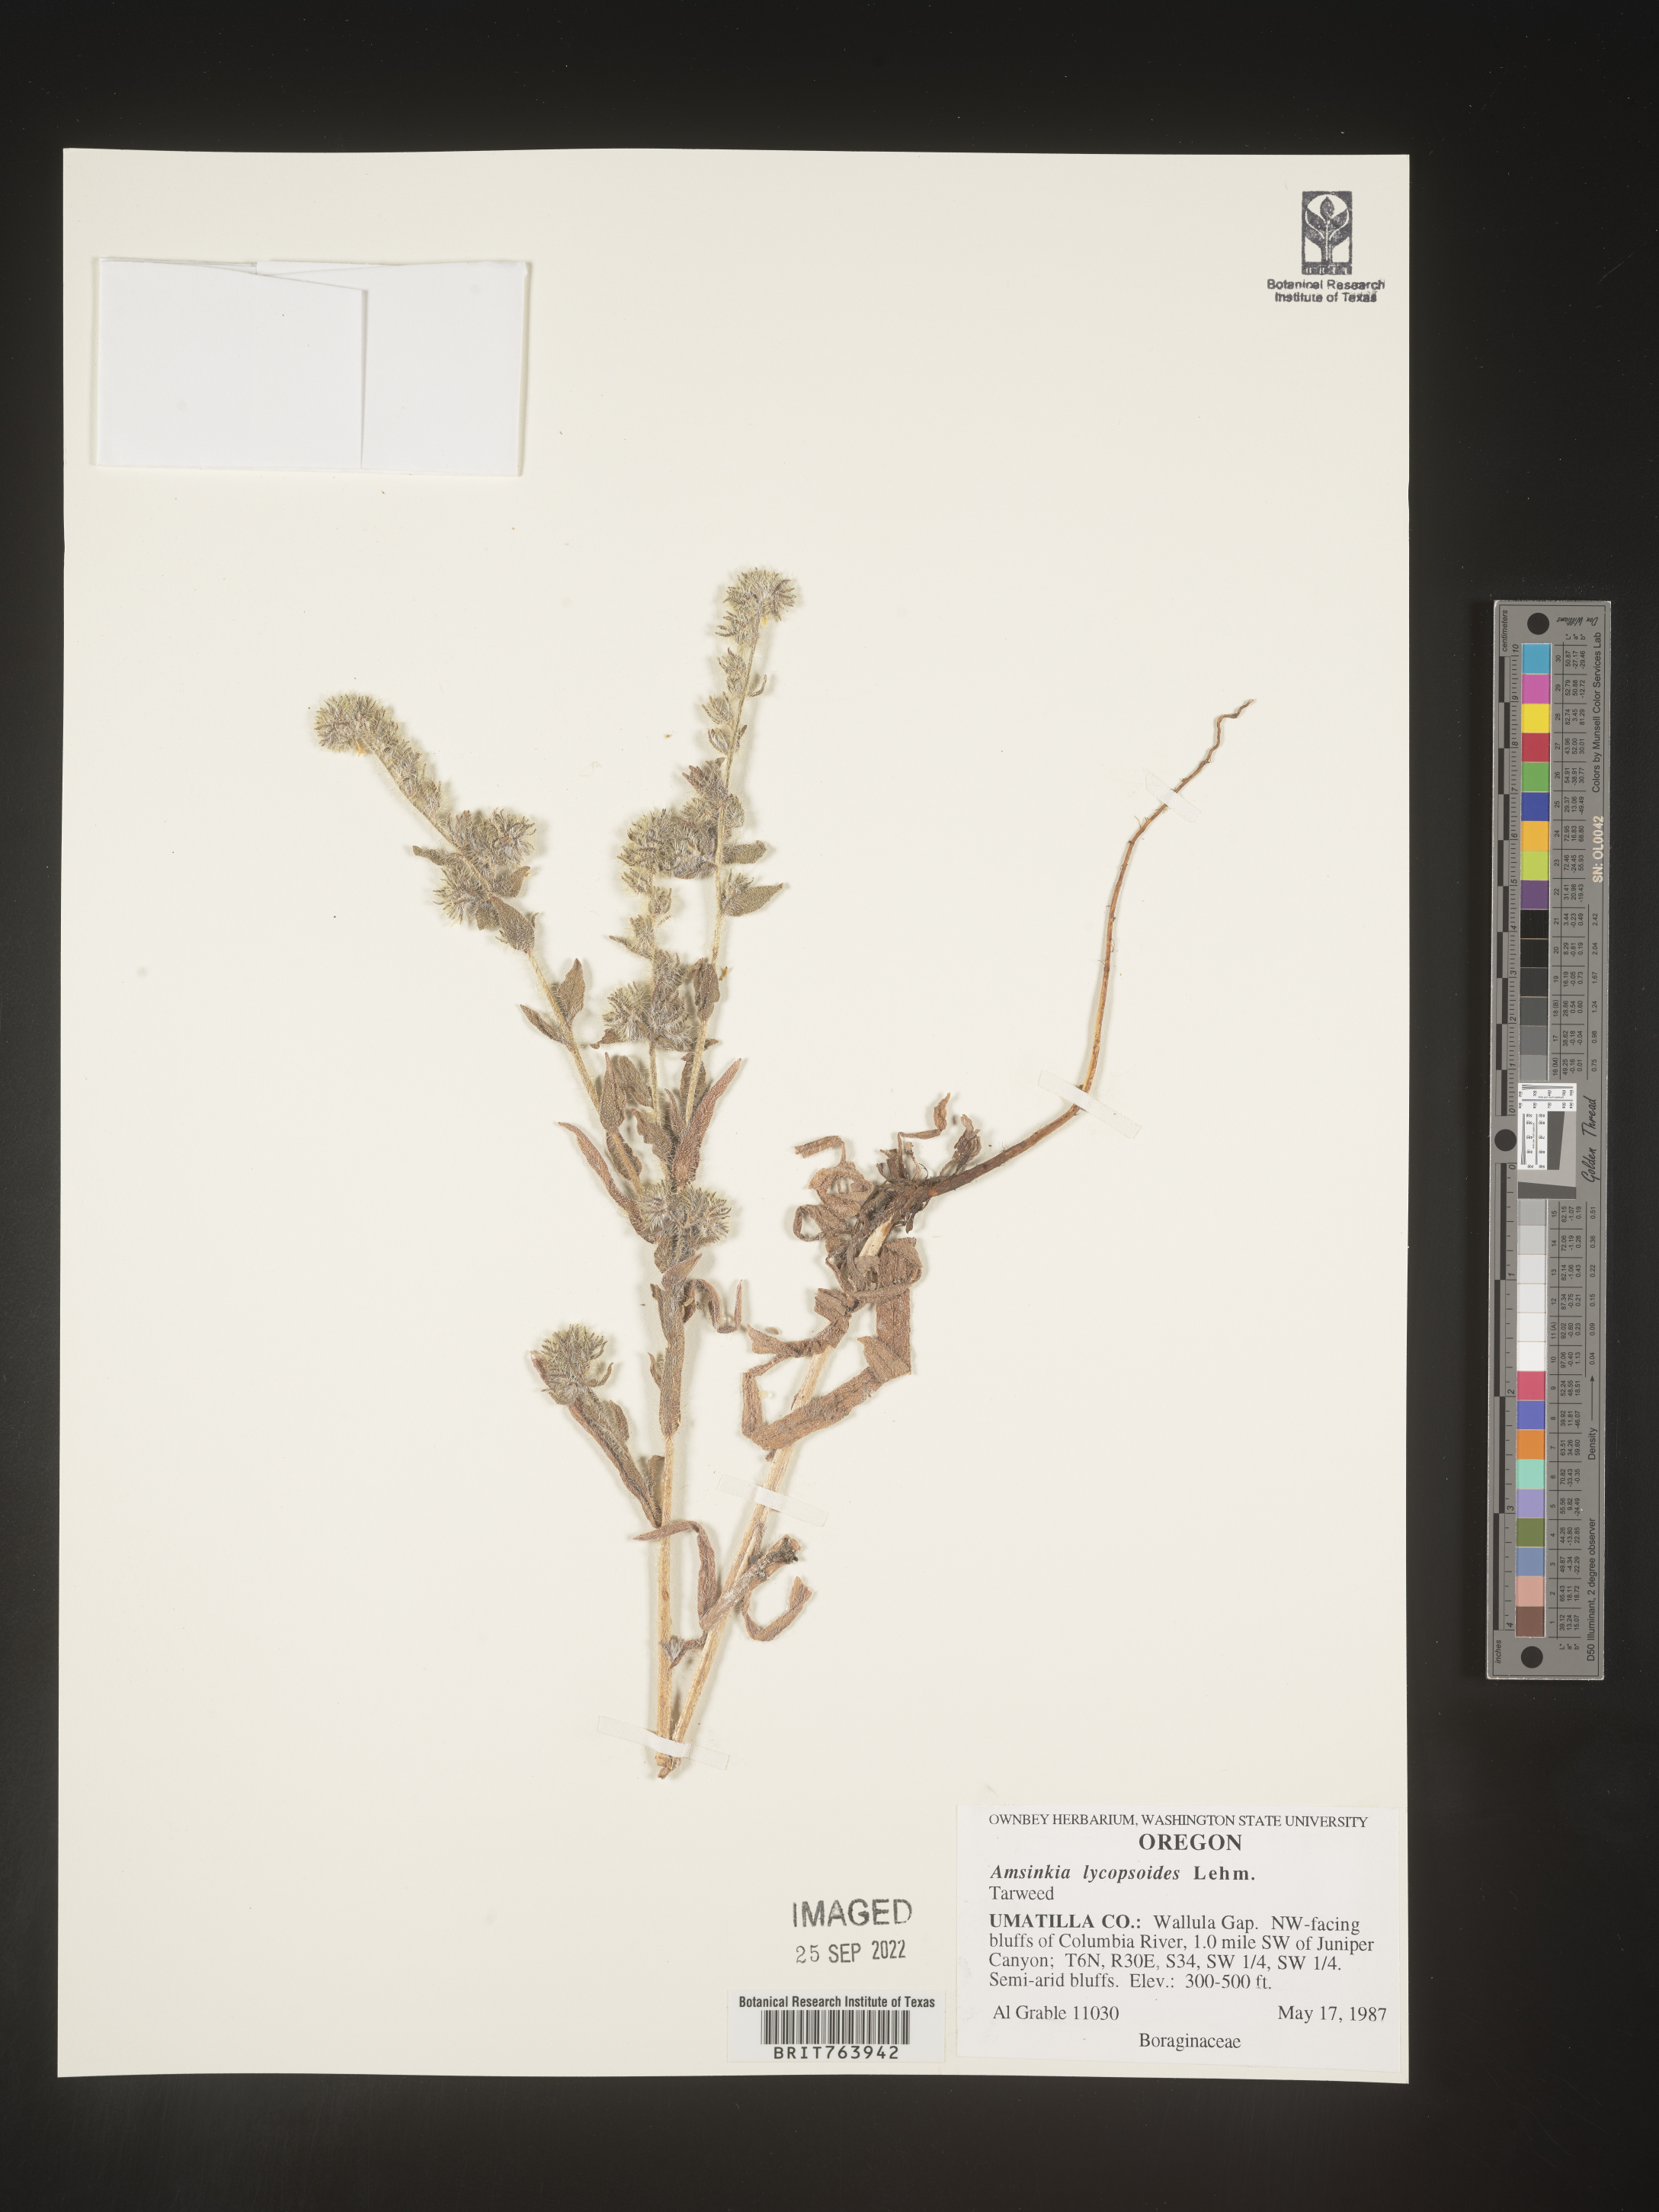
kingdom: Plantae
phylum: Tracheophyta
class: Magnoliopsida
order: Boraginales
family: Boraginaceae
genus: Amsinckia
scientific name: Amsinckia
